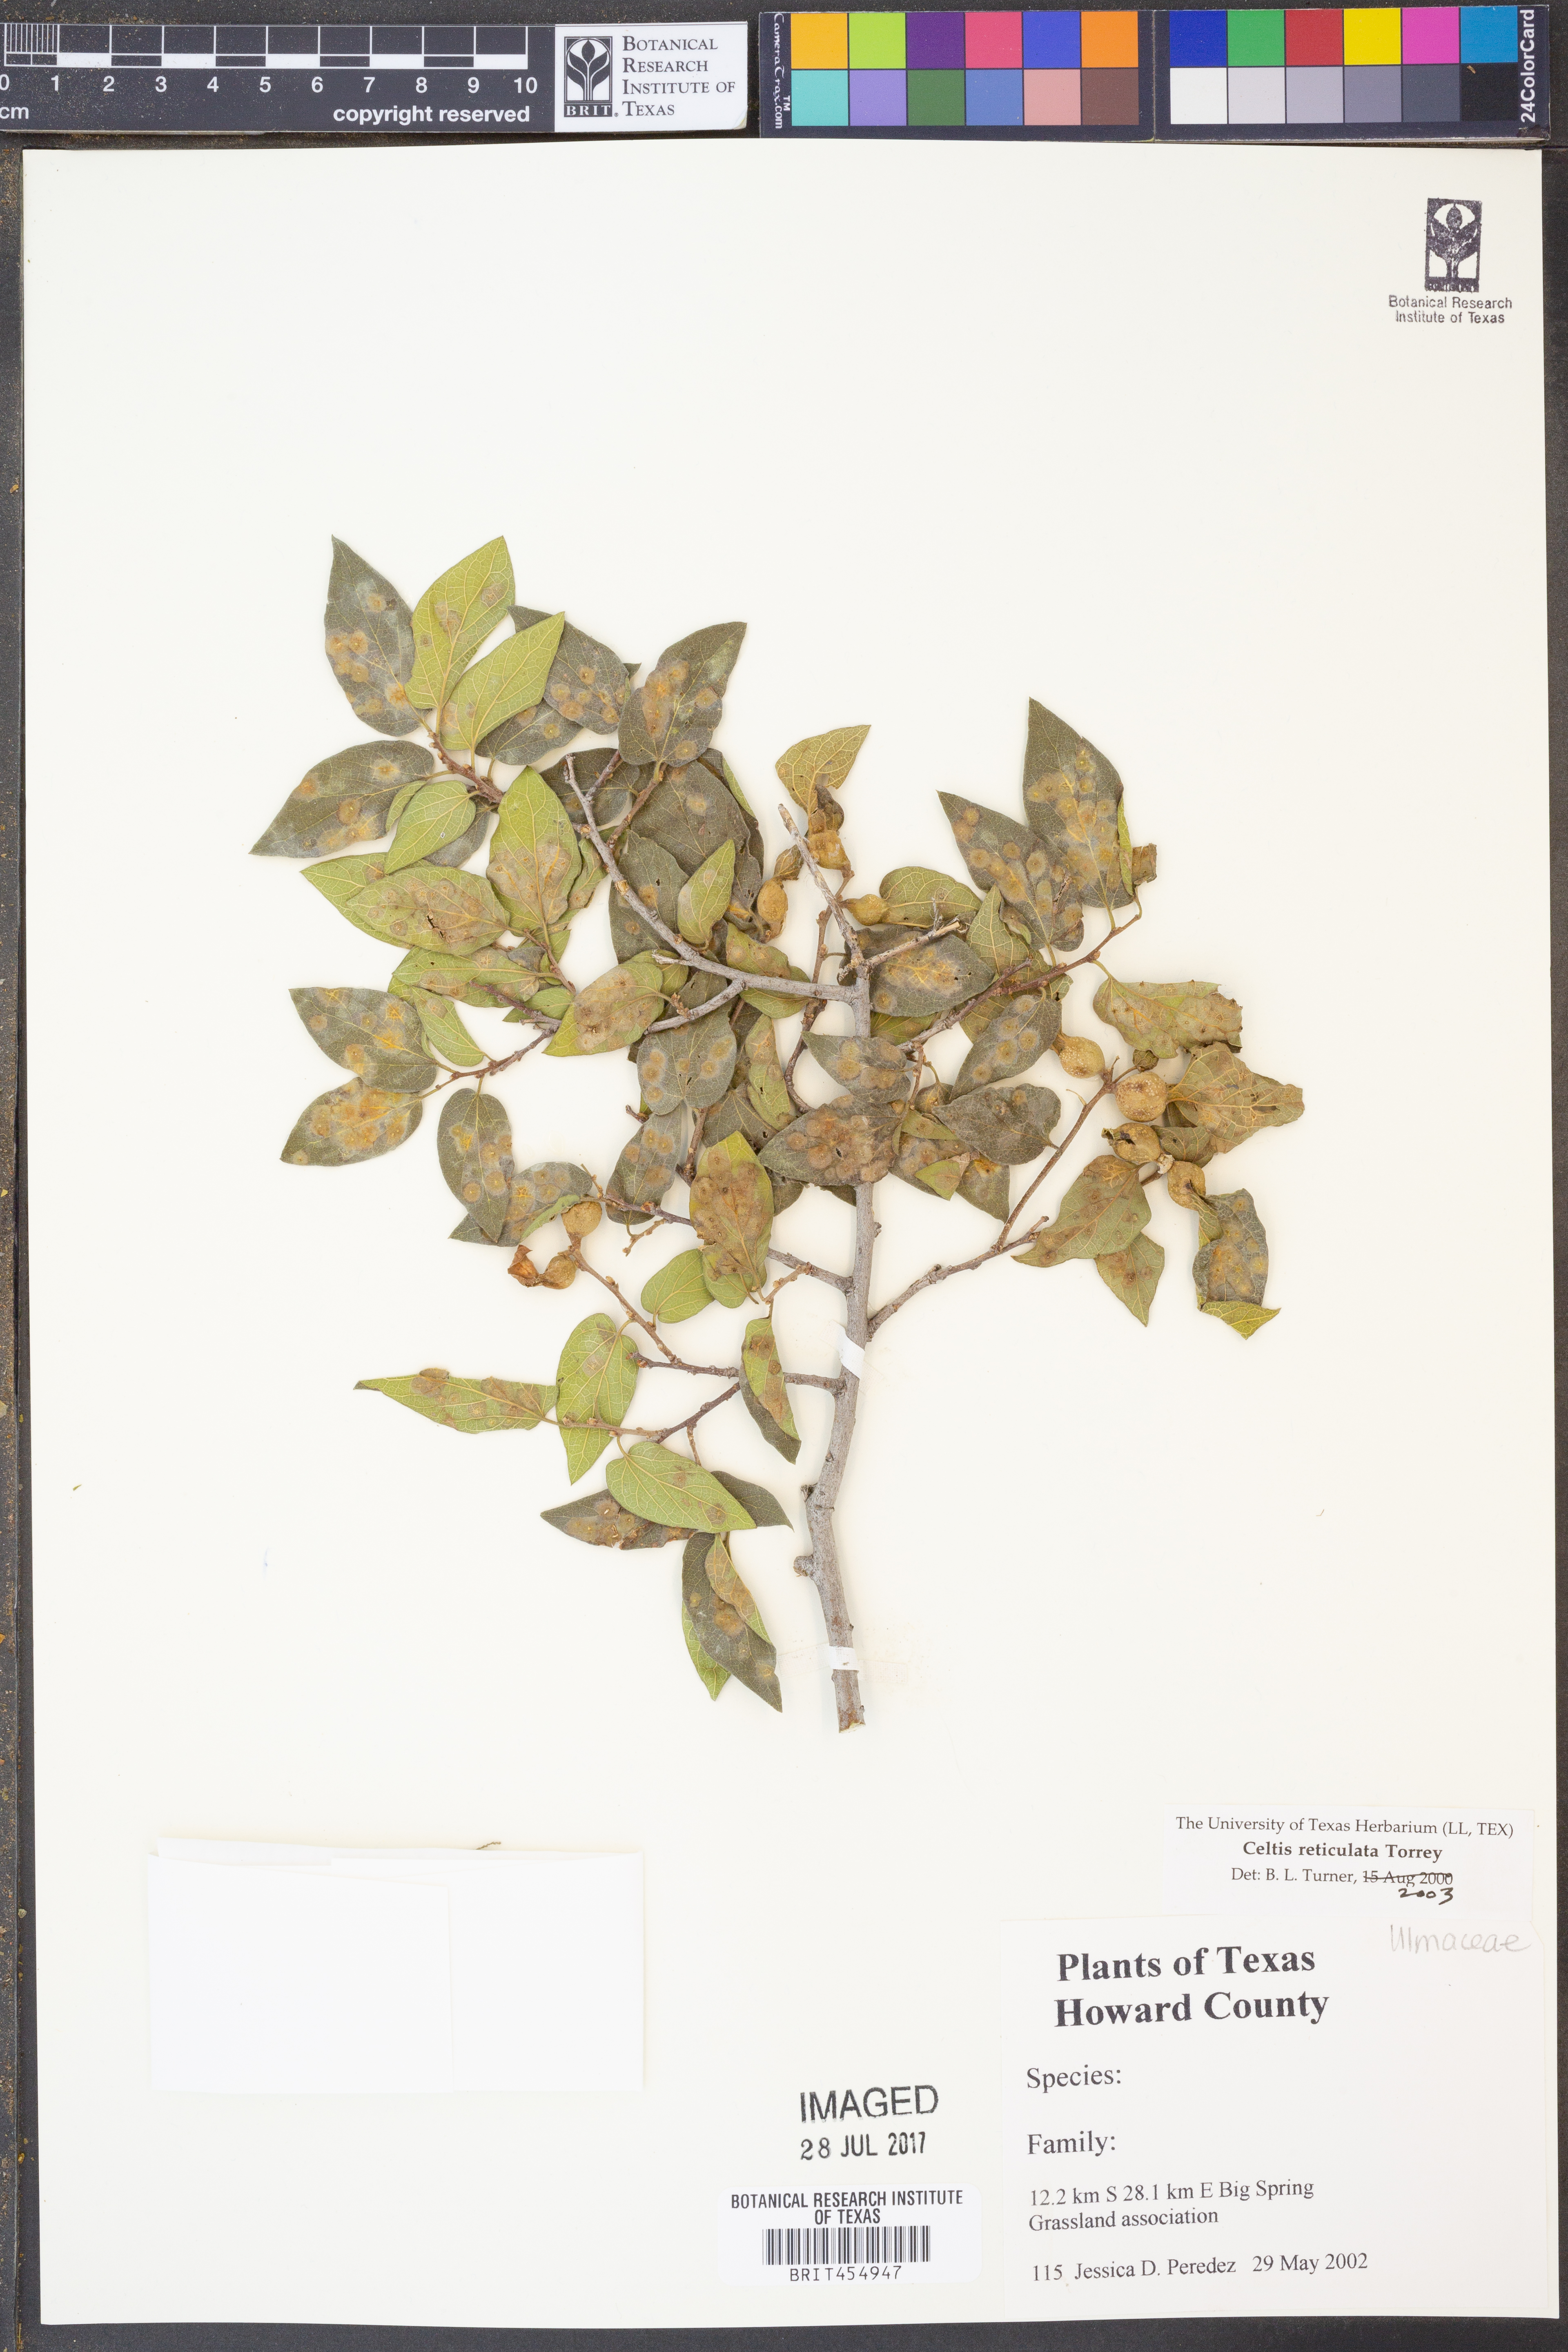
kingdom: Plantae
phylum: Tracheophyta
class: Magnoliopsida
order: Rosales
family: Cannabaceae
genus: Celtis
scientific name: Celtis reticulata
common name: Netleaf hackberry
